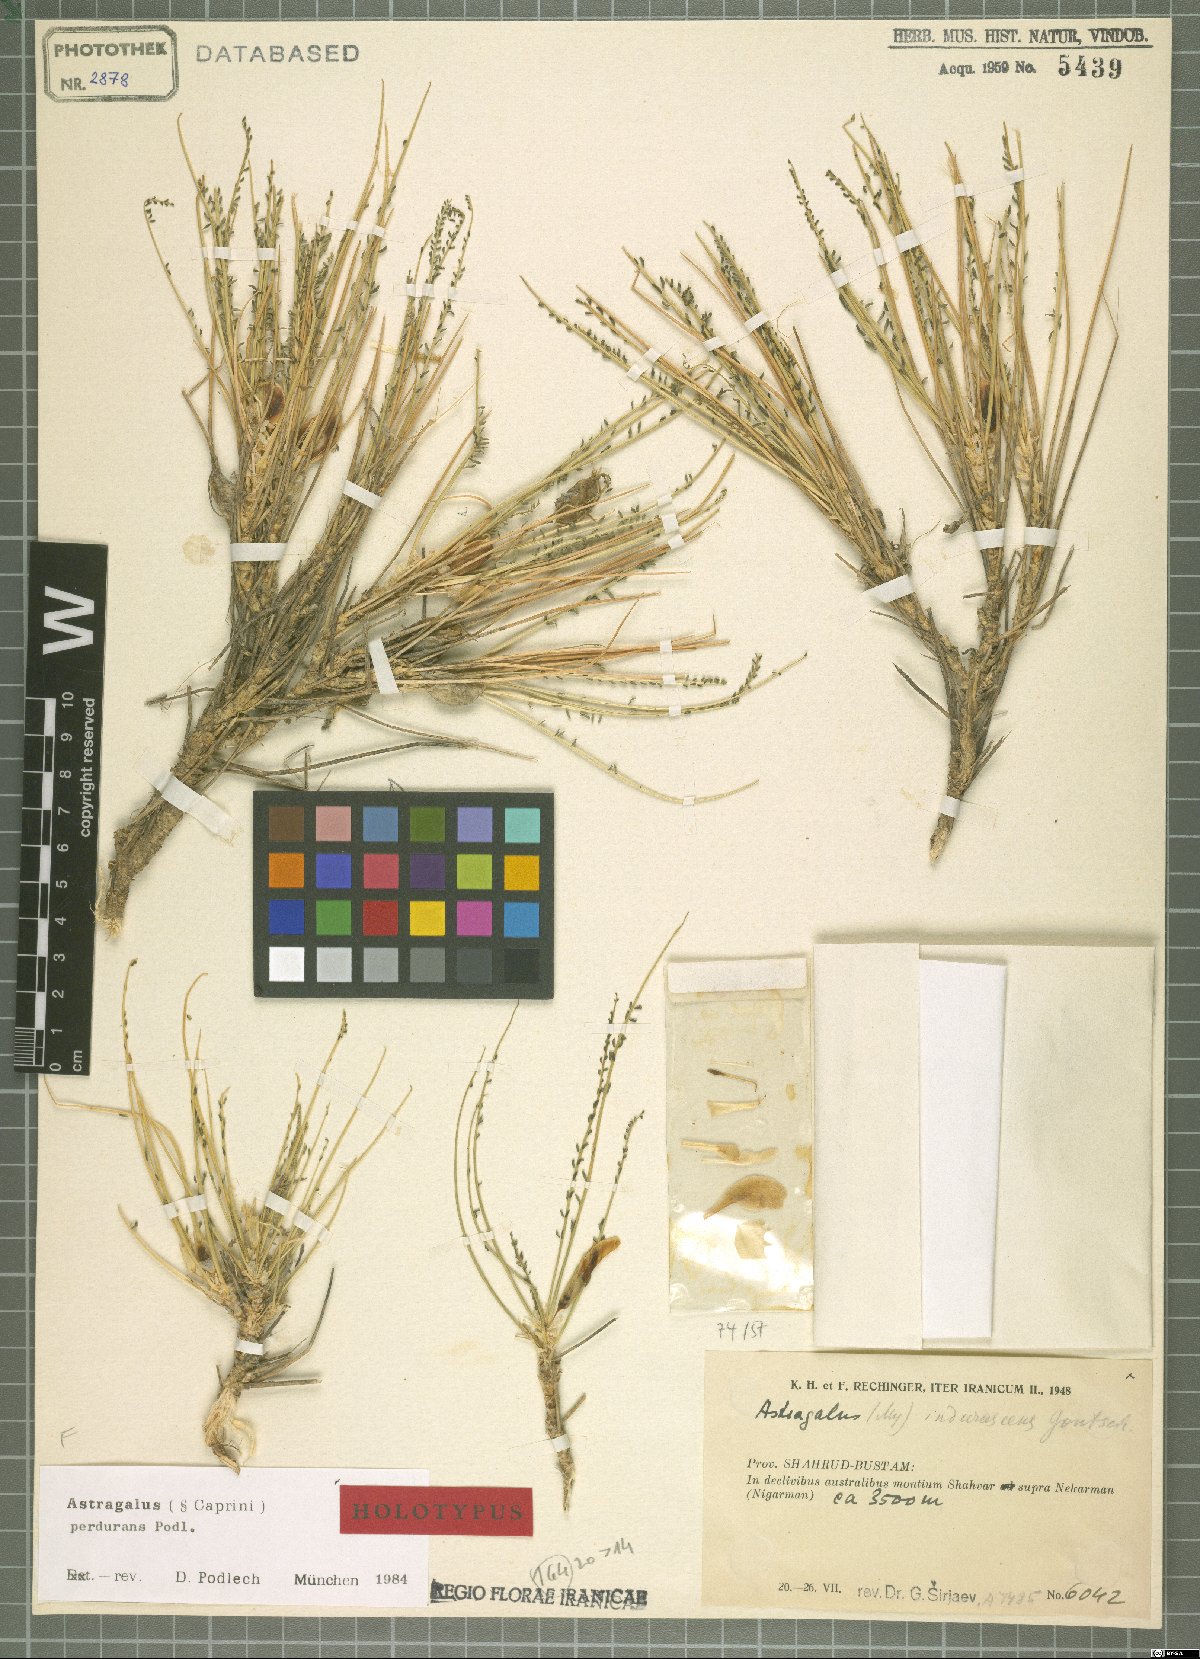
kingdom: Plantae
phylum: Tracheophyta
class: Magnoliopsida
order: Fabales
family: Fabaceae
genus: Astragalus
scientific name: Astragalus perdurans
